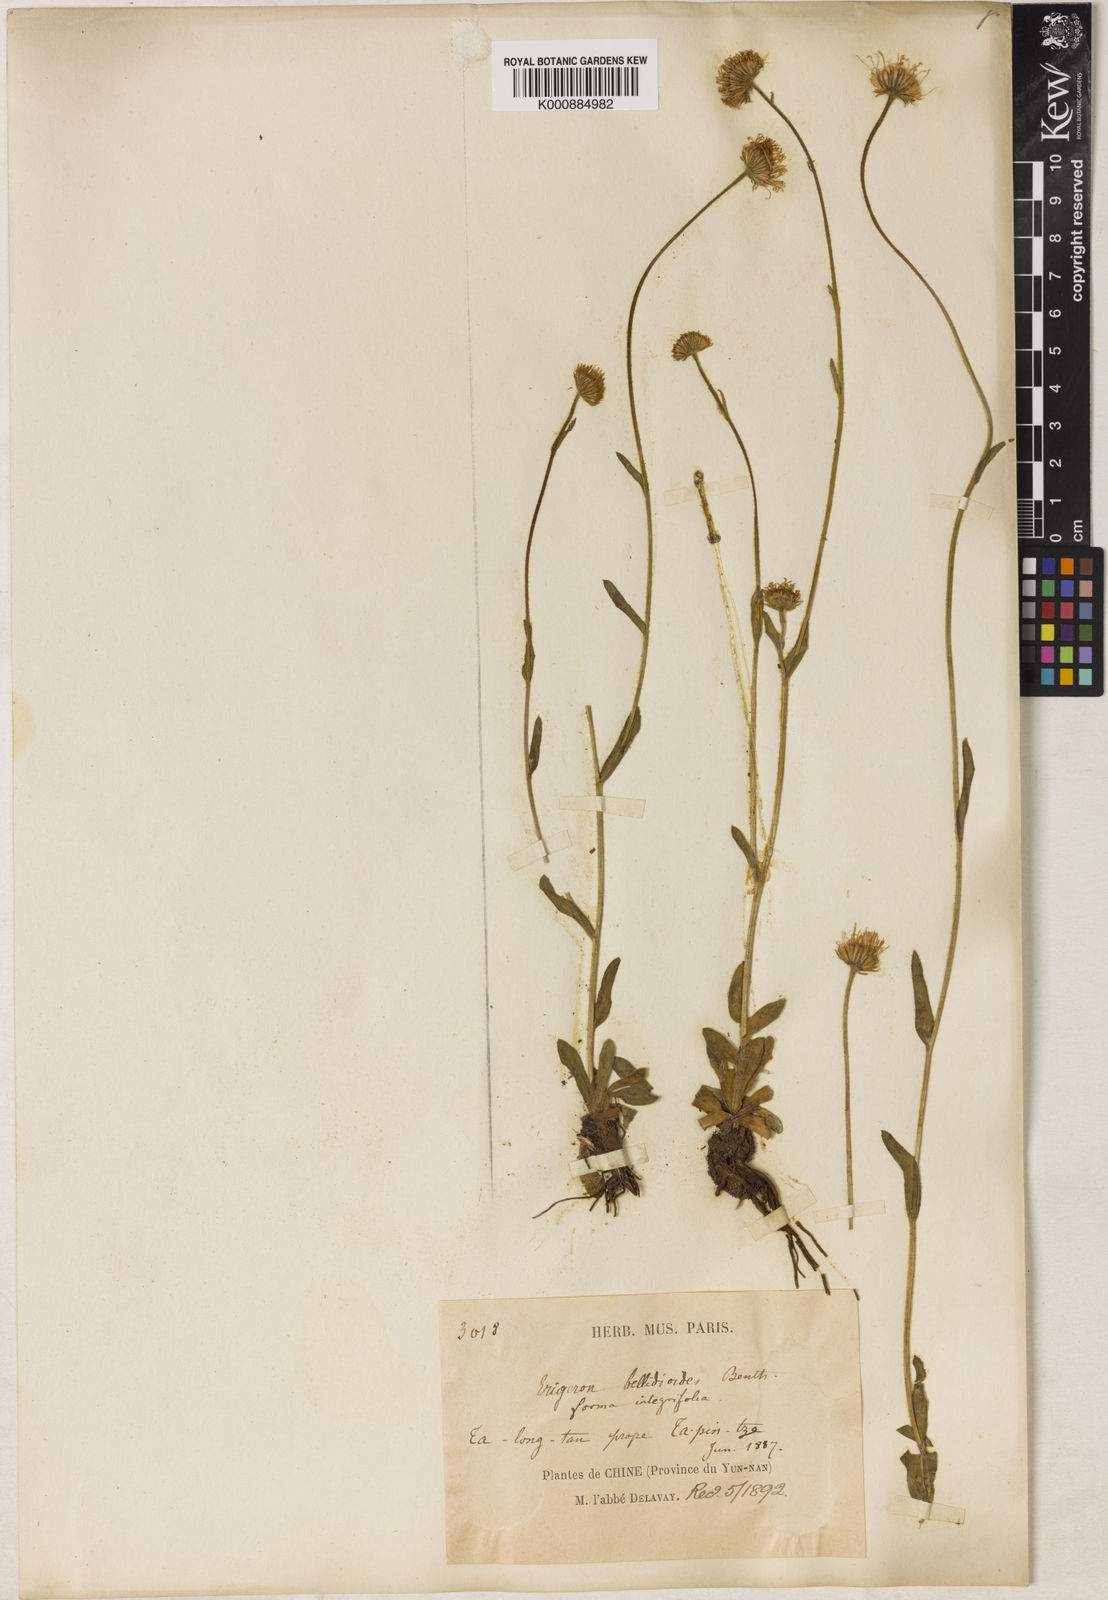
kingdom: Plantae
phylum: Tracheophyta
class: Magnoliopsida
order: Asterales
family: Asteraceae
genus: Erigeron
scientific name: Erigeron emodi
